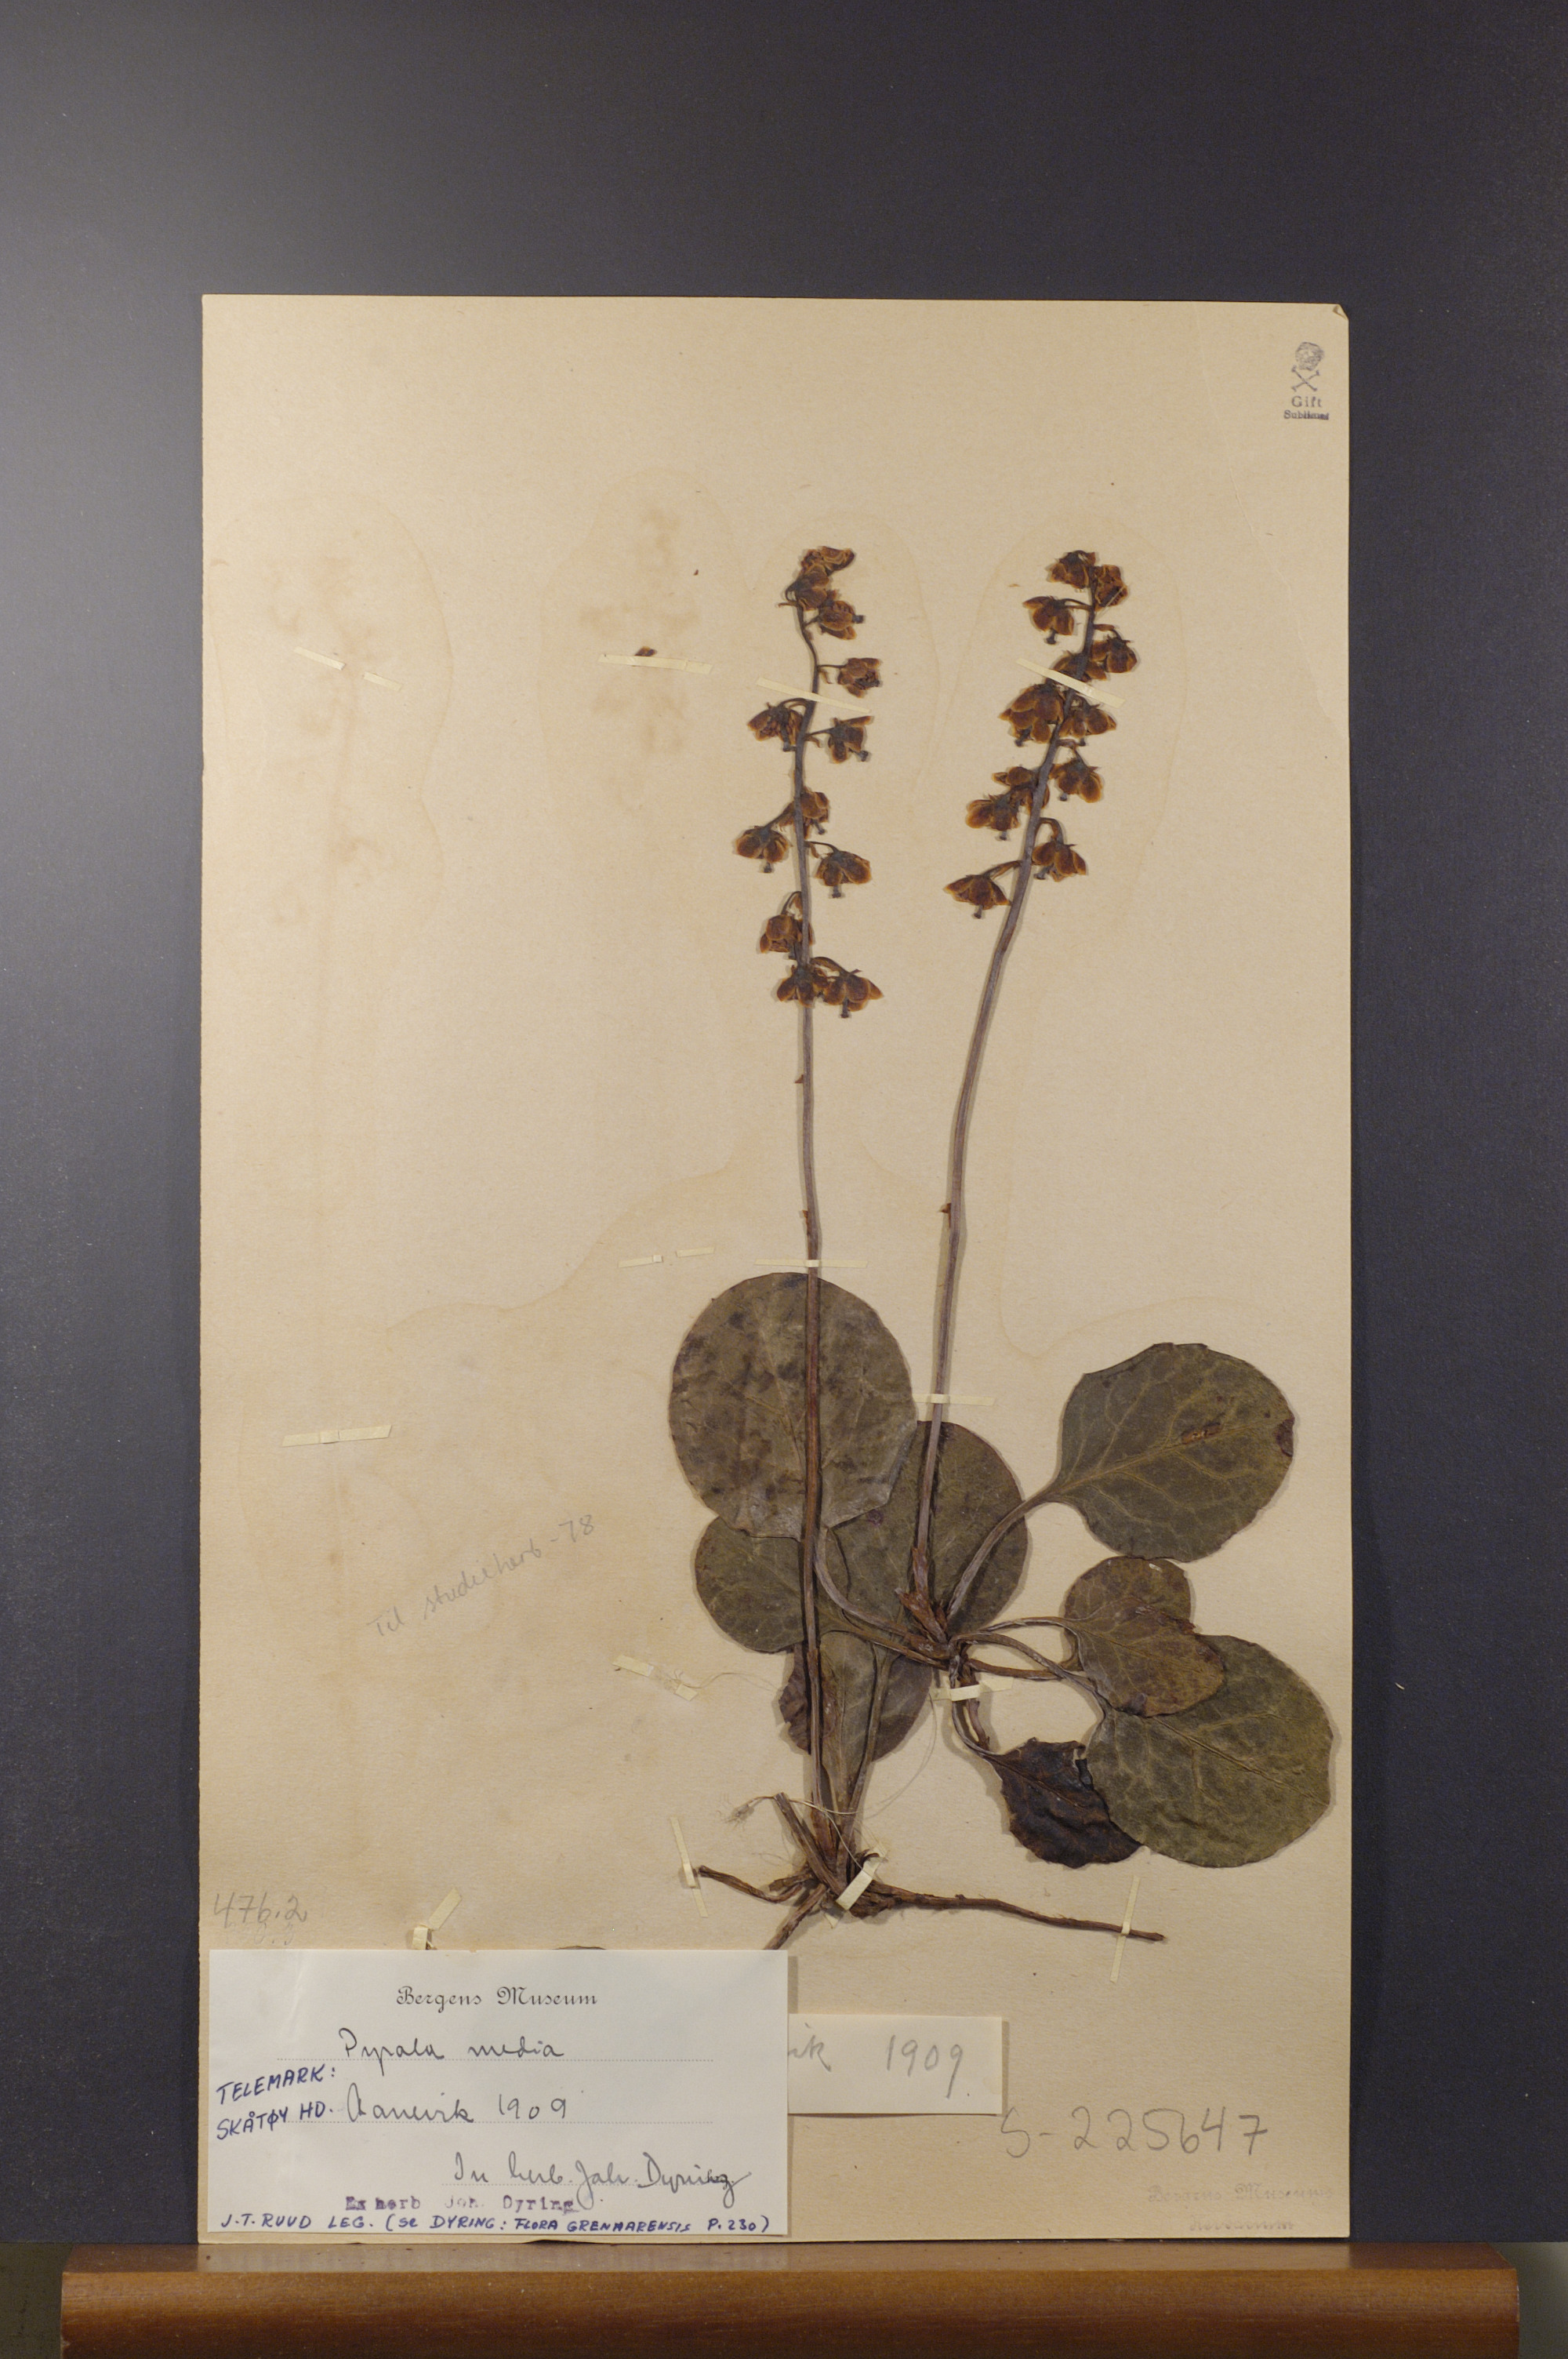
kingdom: Plantae
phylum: Tracheophyta
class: Magnoliopsida
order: Ericales
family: Ericaceae
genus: Pyrola
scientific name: Pyrola media
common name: Intermediate wintergreen
